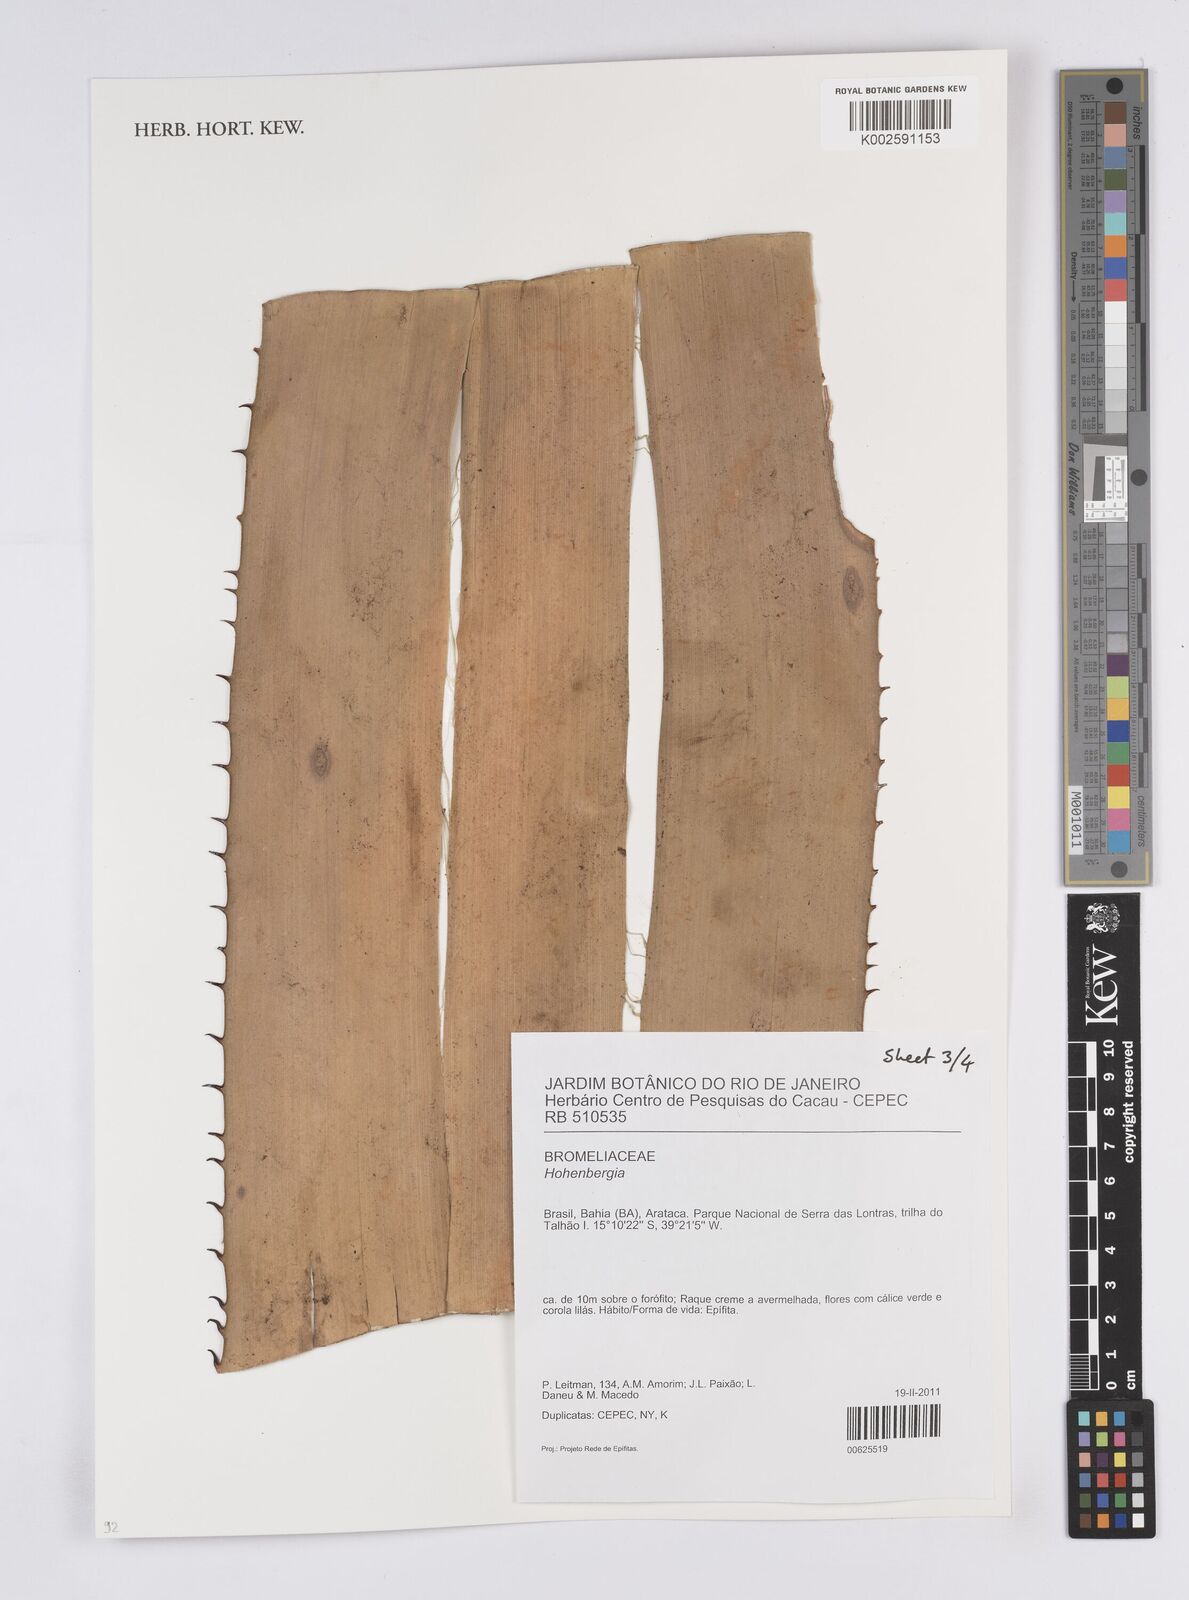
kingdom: Plantae
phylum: Tracheophyta
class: Liliopsida
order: Poales
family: Bromeliaceae
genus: Hohenbergia
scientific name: Hohenbergia
